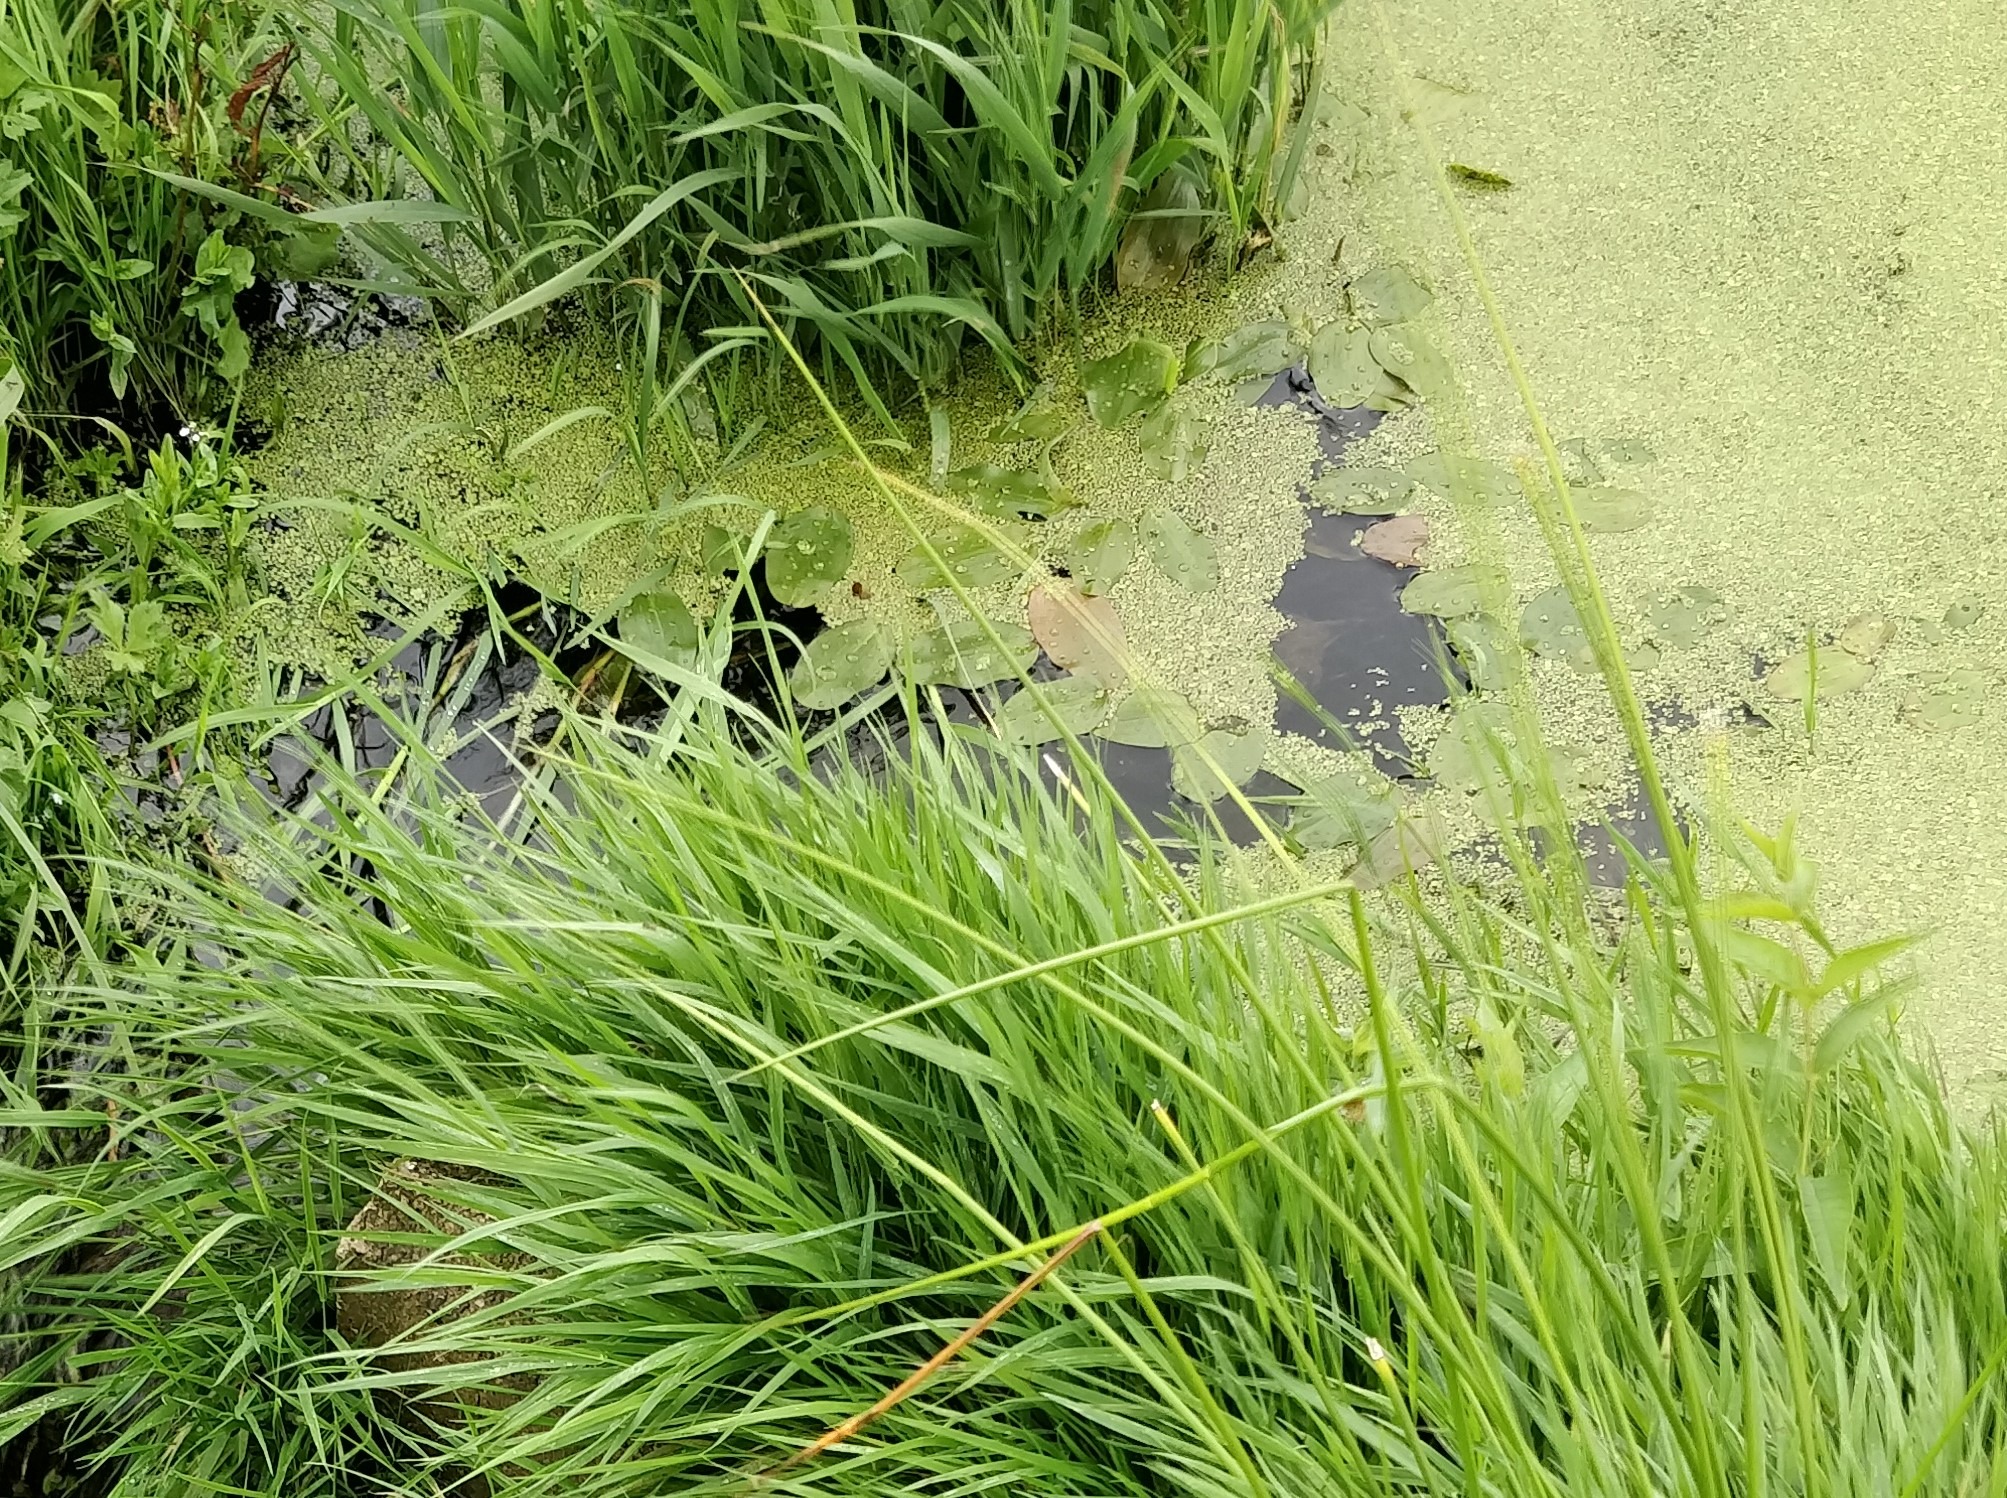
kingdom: Plantae
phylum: Tracheophyta
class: Liliopsida
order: Alismatales
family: Potamogetonaceae
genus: Potamogeton
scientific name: Potamogeton natans
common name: Svømmende vandaks
